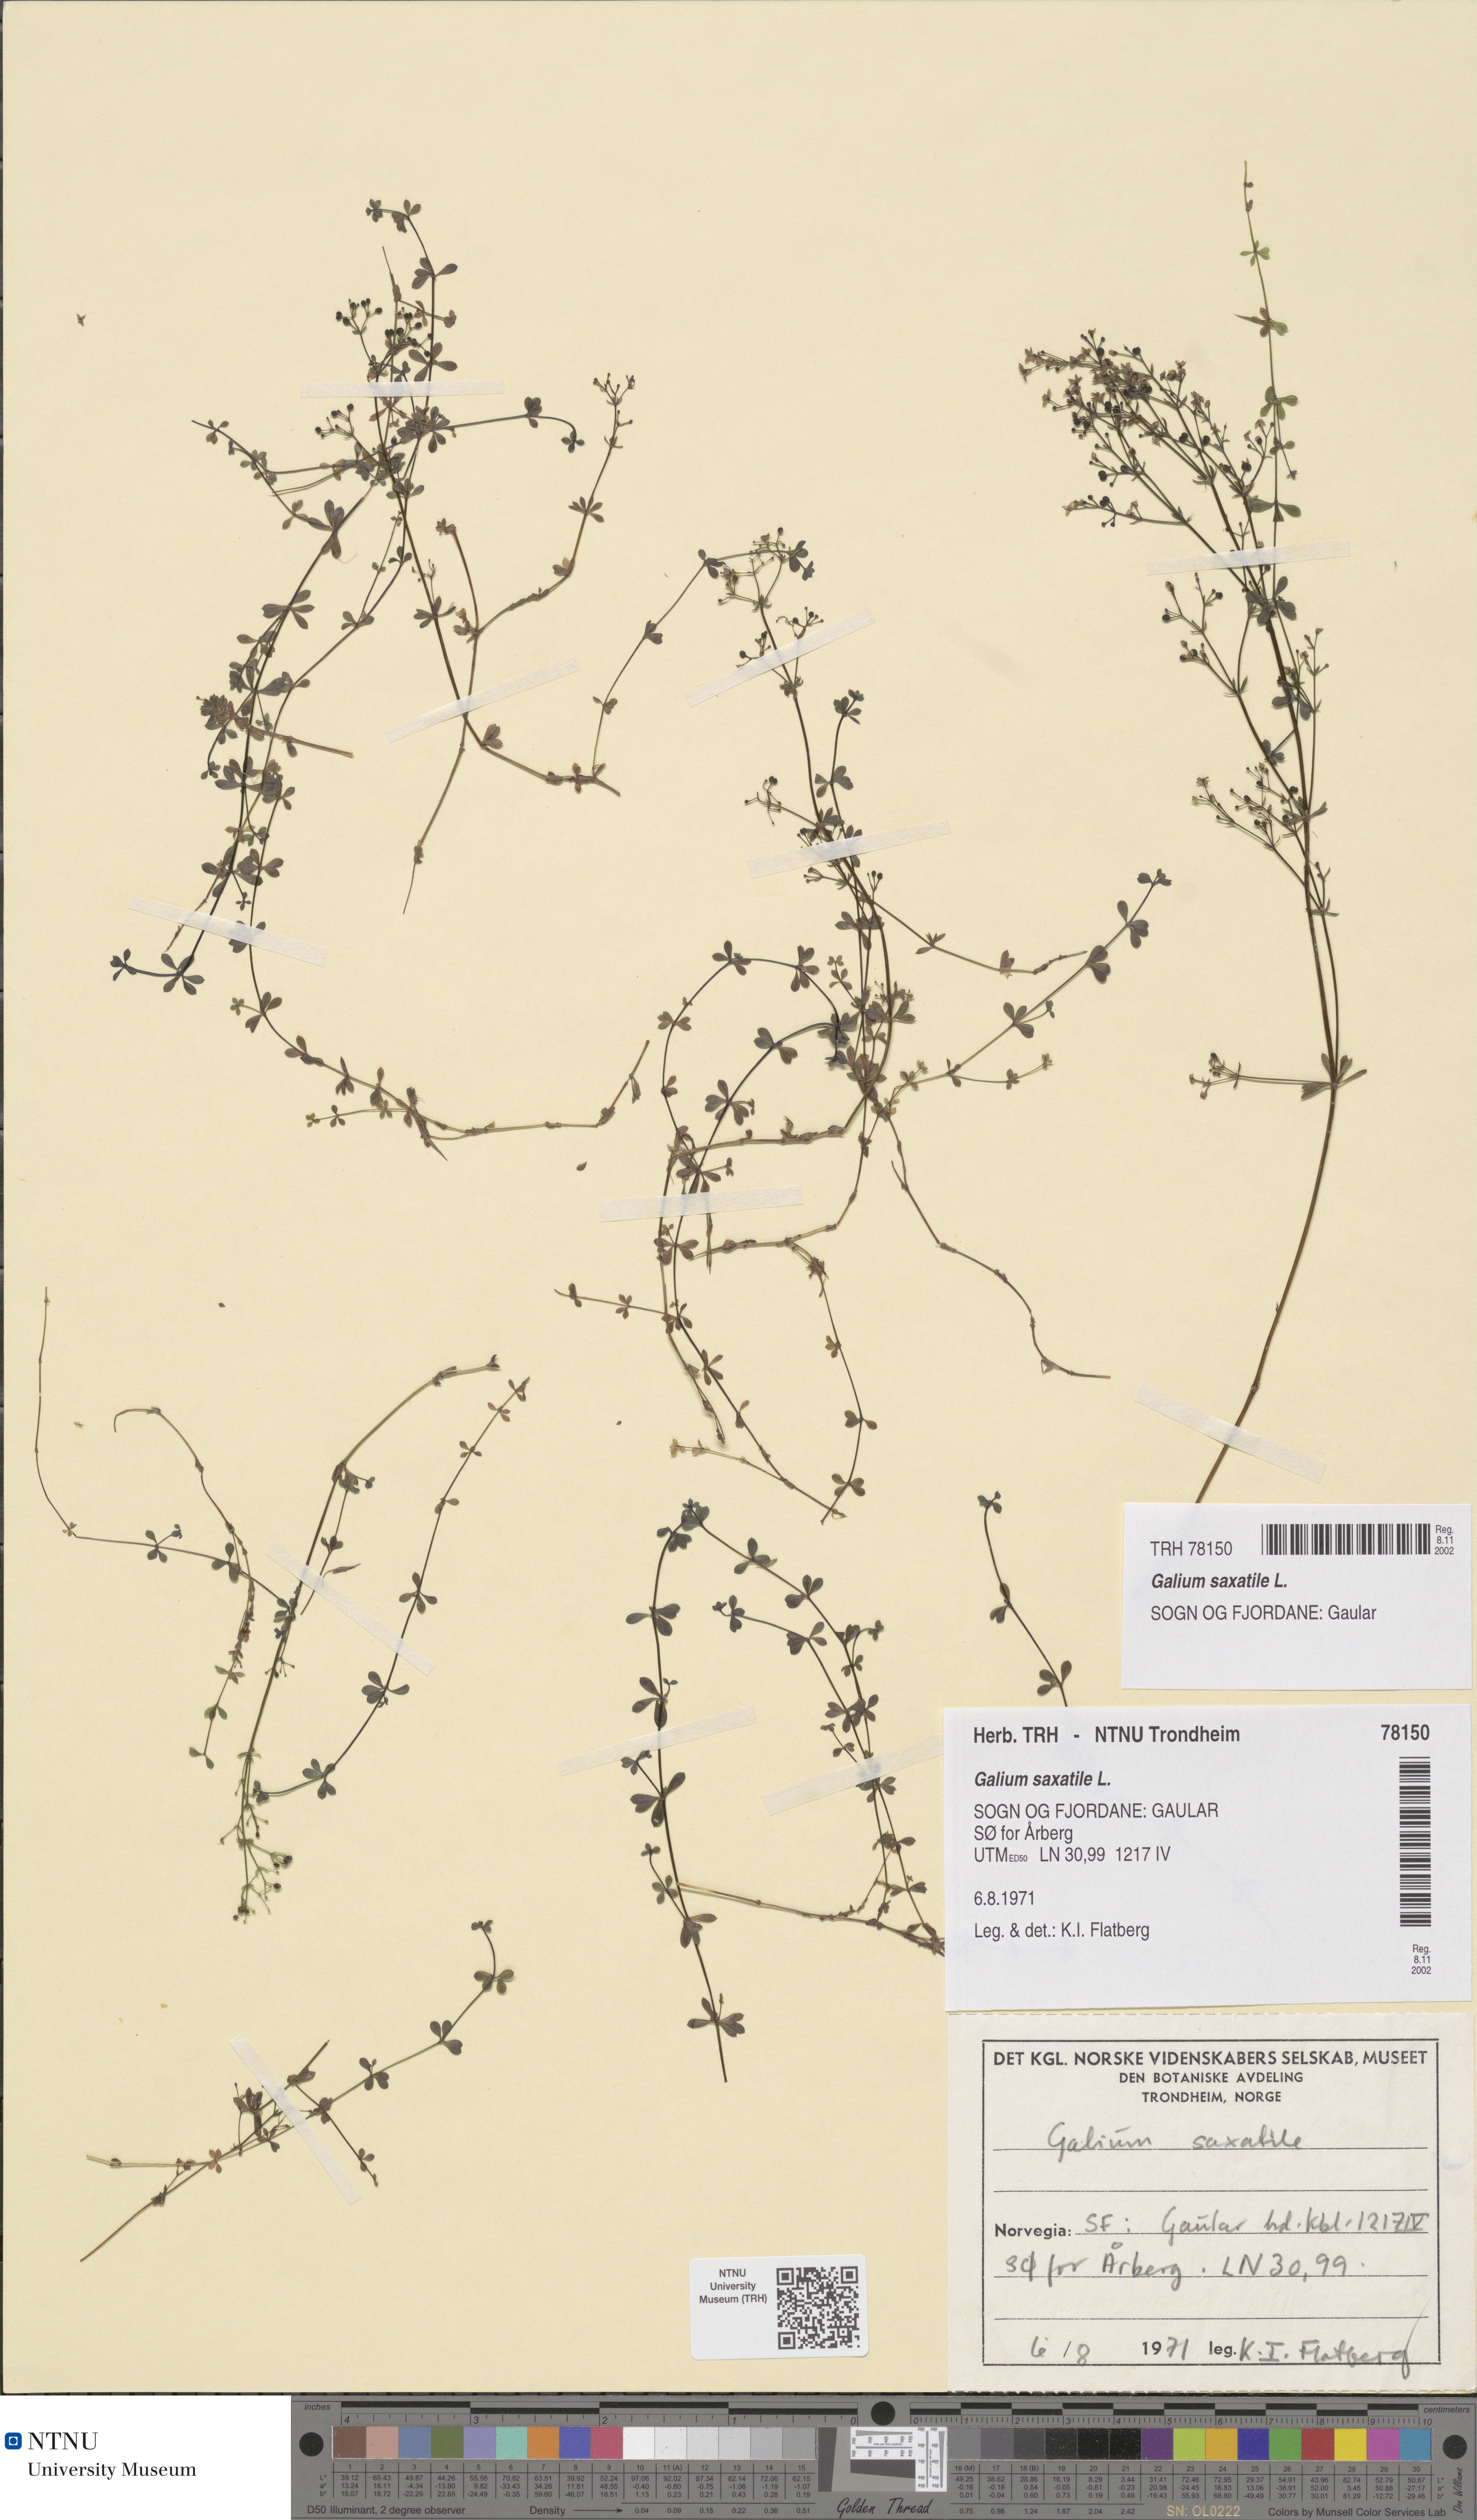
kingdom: Plantae
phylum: Tracheophyta
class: Magnoliopsida
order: Gentianales
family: Rubiaceae
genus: Galium
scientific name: Galium saxatile
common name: Heath bedstraw
